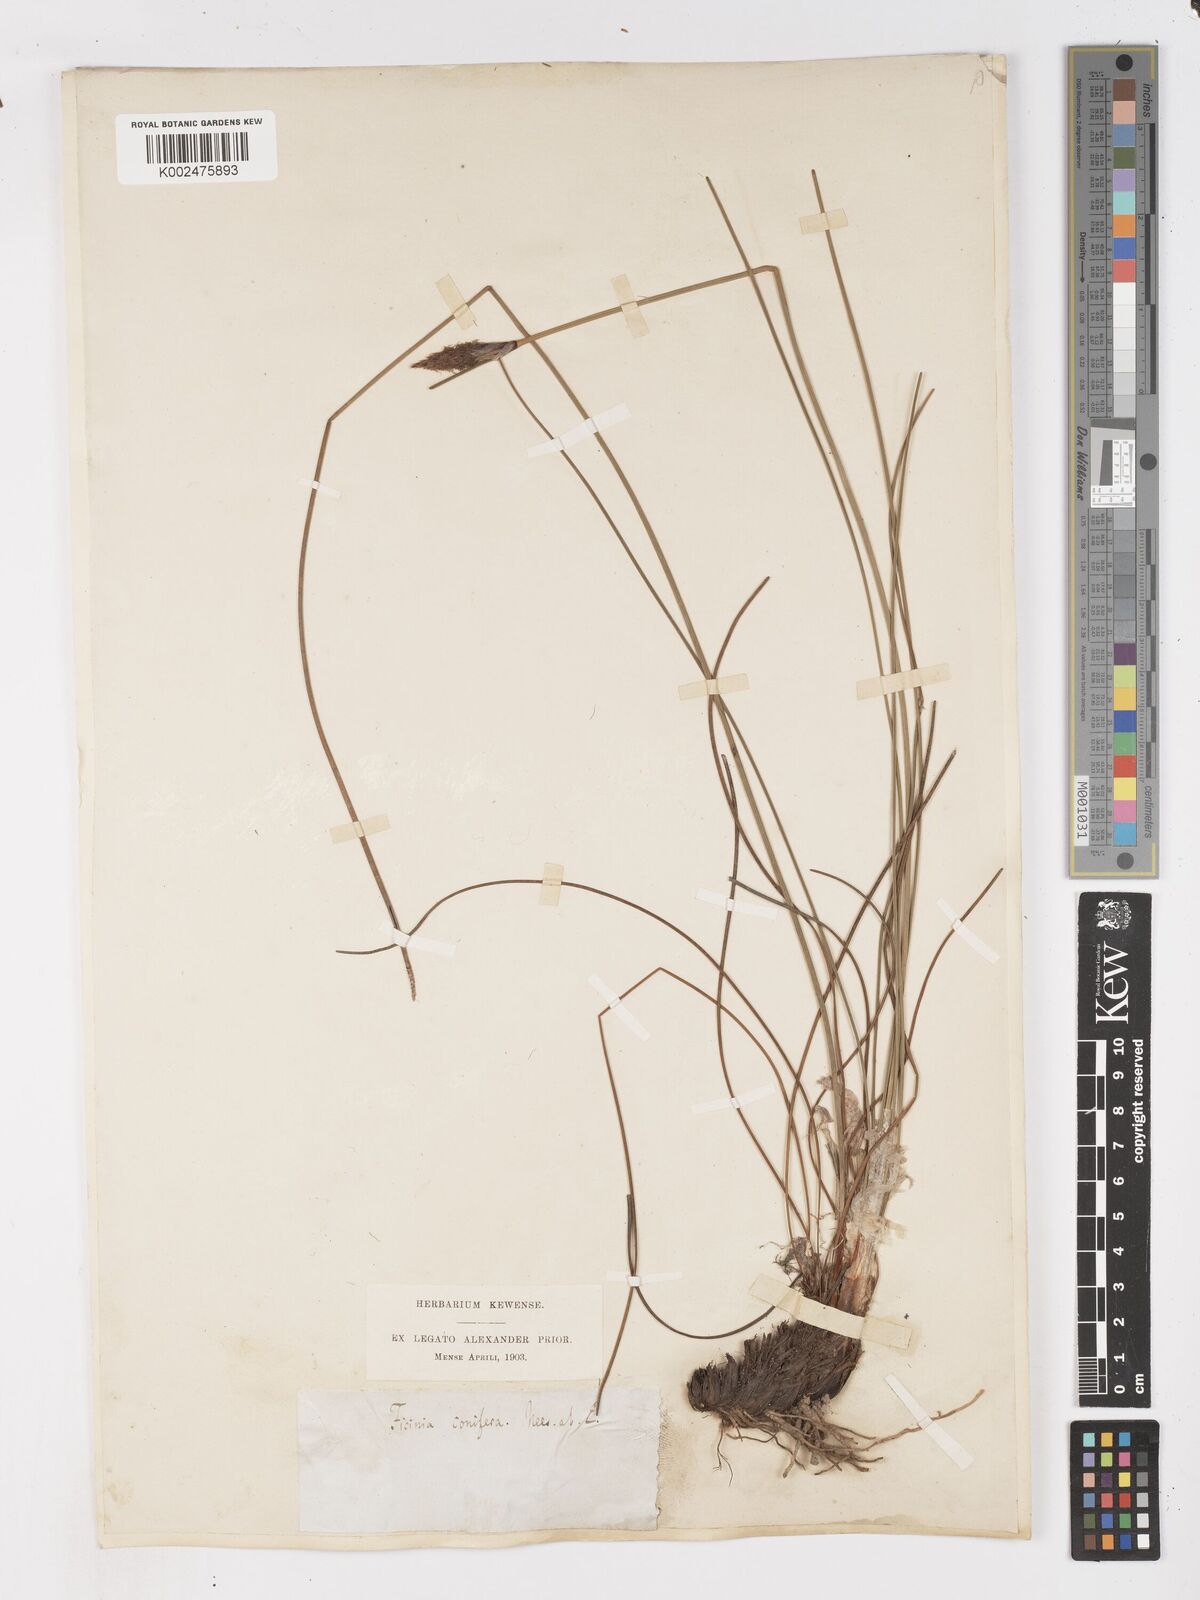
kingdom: Plantae
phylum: Tracheophyta
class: Liliopsida
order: Poales
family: Cyperaceae
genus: Ficinia
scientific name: Ficinia deusta
